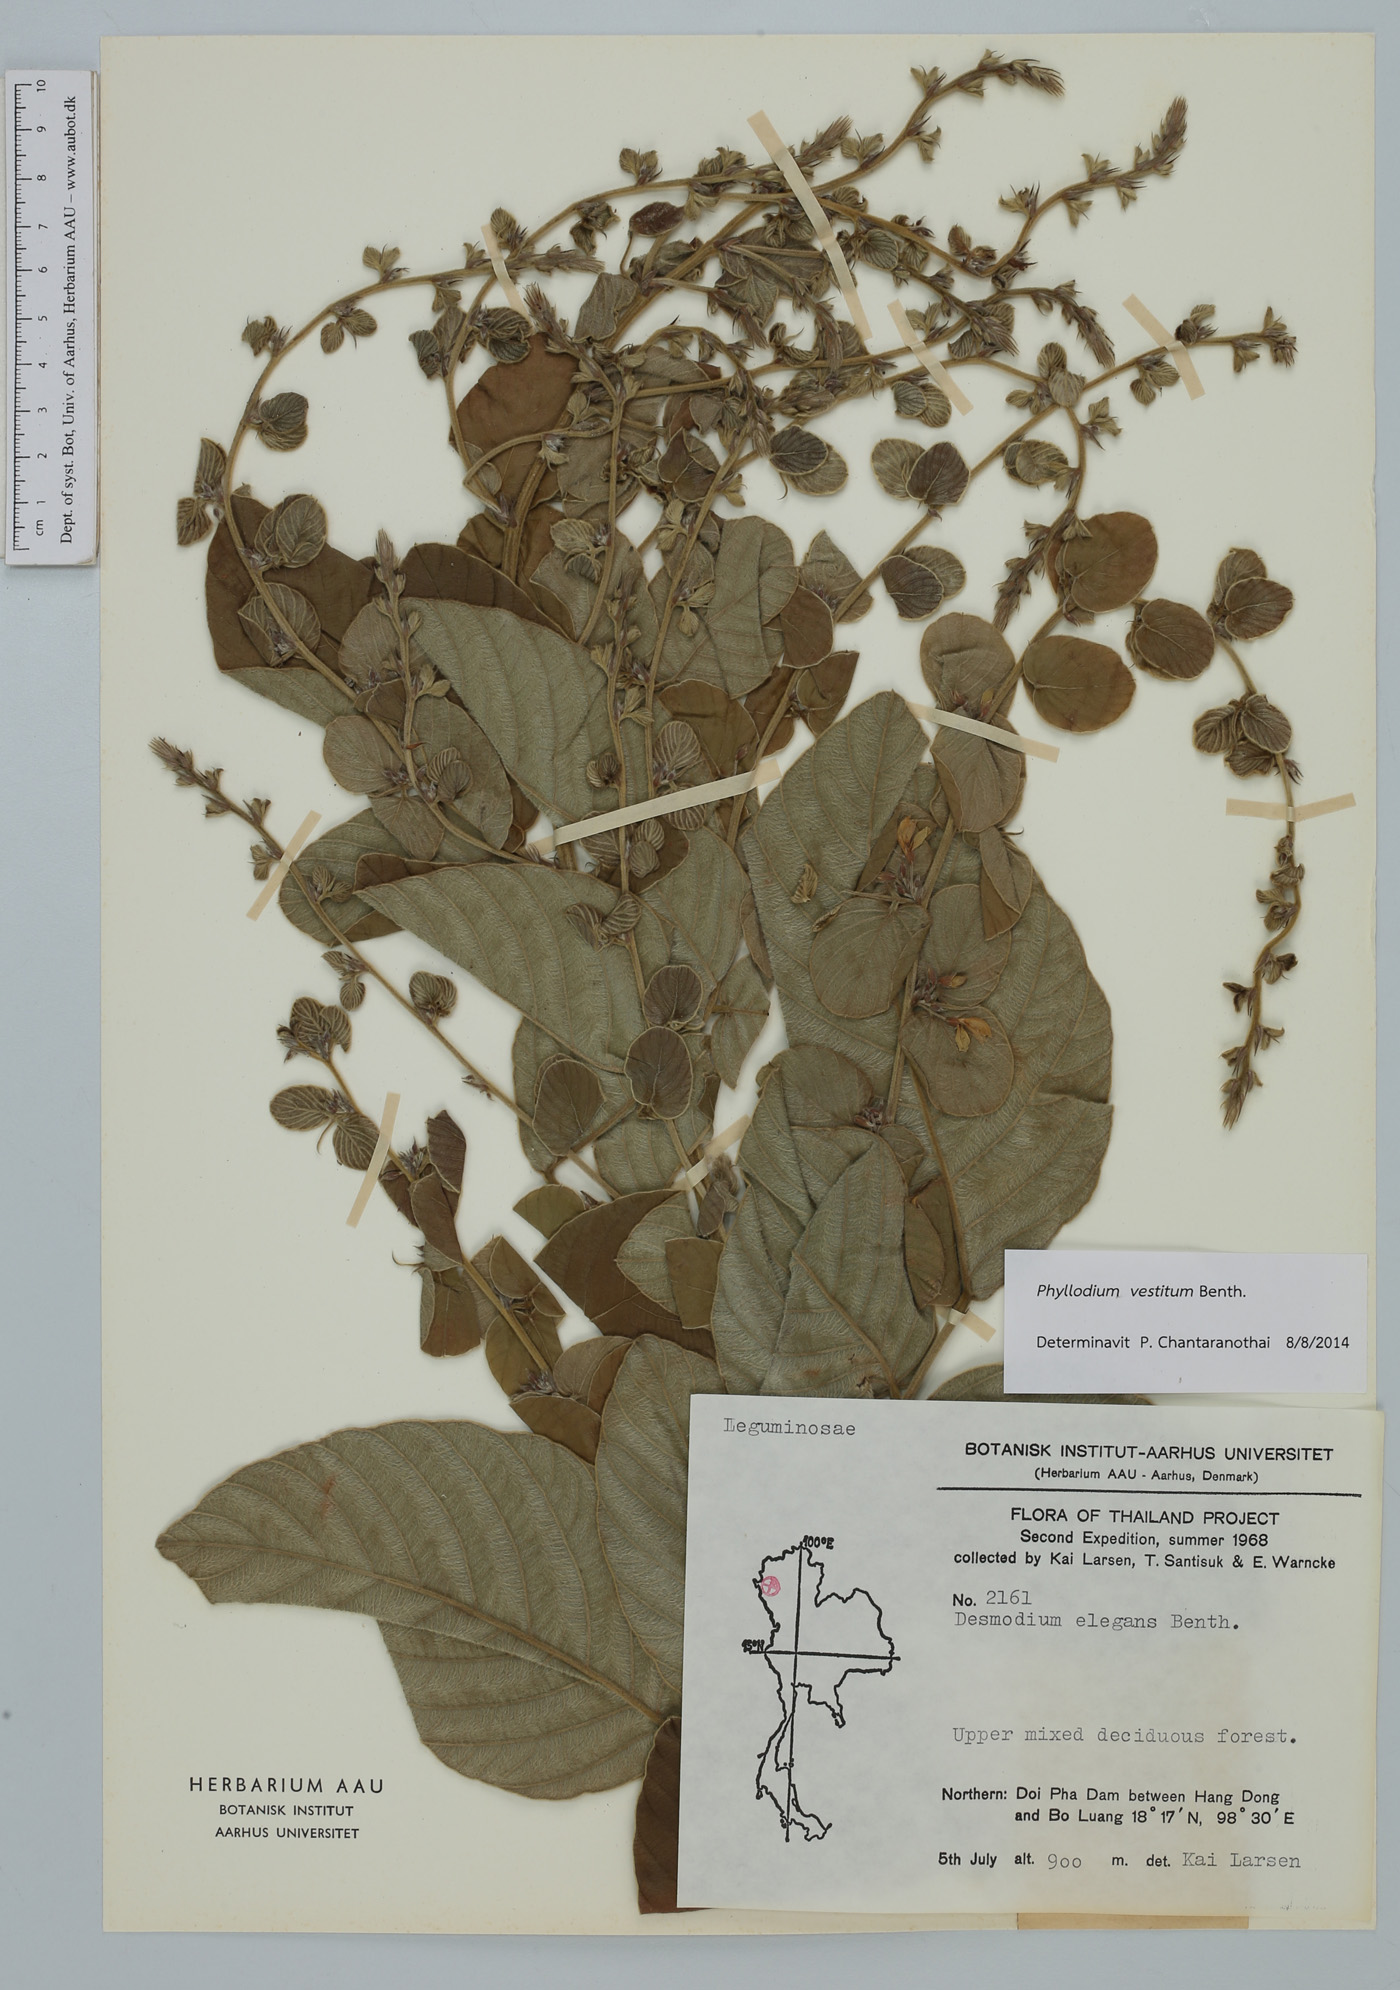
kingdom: Plantae
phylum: Tracheophyta
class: Magnoliopsida
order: Fabales
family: Fabaceae
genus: Phyllodium
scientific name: Phyllodium vestitum
